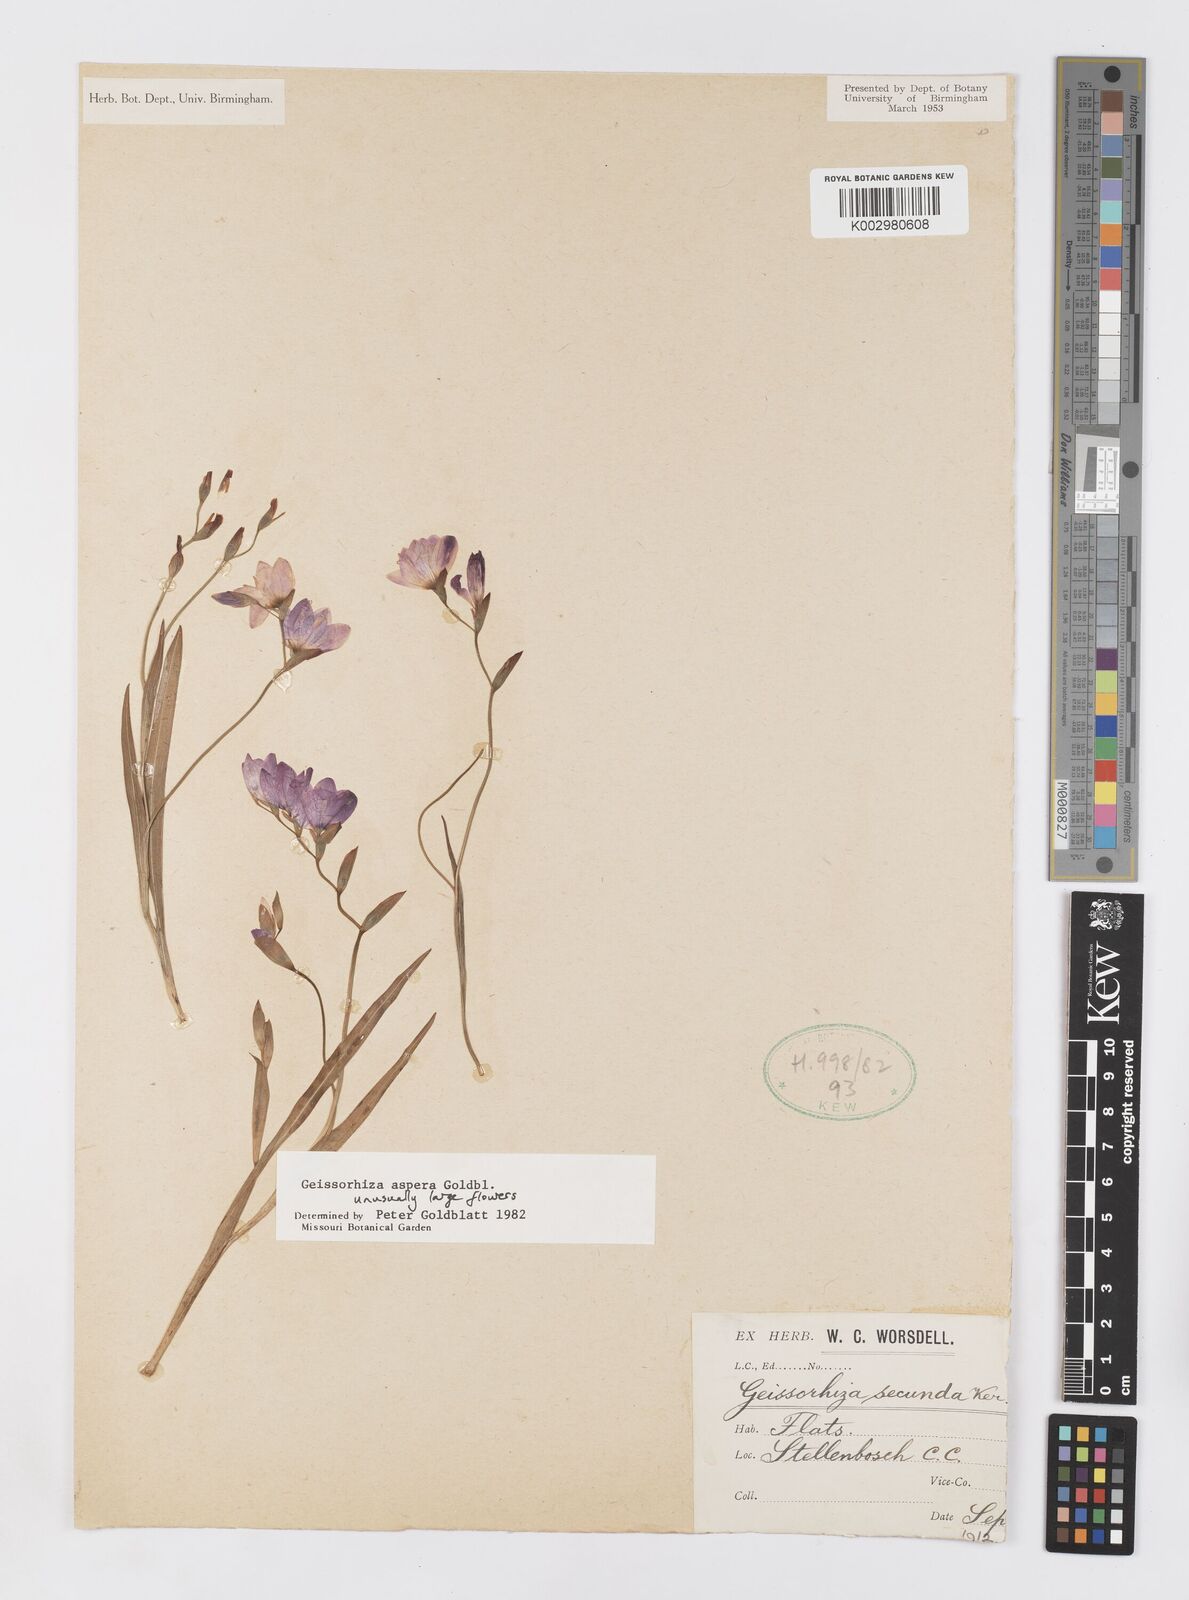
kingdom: Plantae
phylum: Tracheophyta
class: Liliopsida
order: Asparagales
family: Iridaceae
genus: Geissorhiza
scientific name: Geissorhiza aspera
